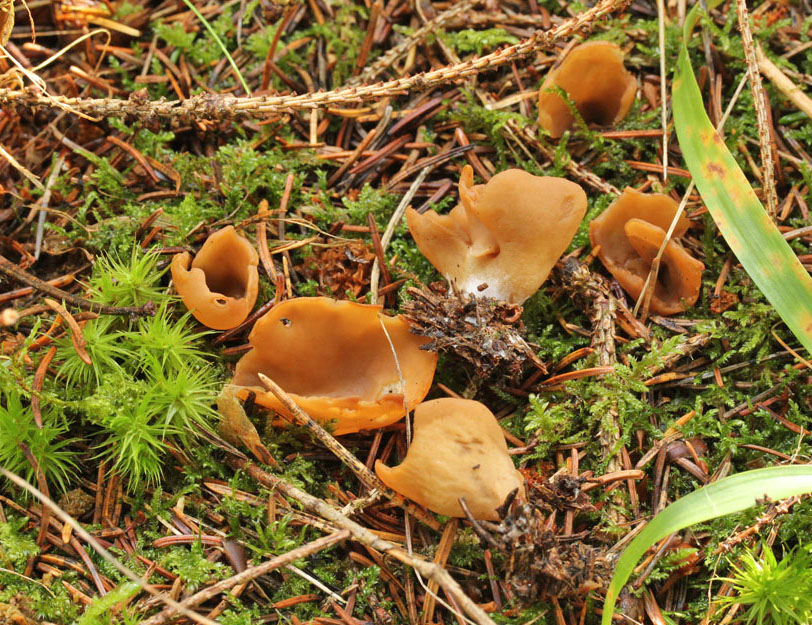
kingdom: Fungi
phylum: Ascomycota
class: Pezizomycetes
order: Pezizales
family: Otideaceae
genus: Otidea
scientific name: Otidea leporina
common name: hare-ørebæger
